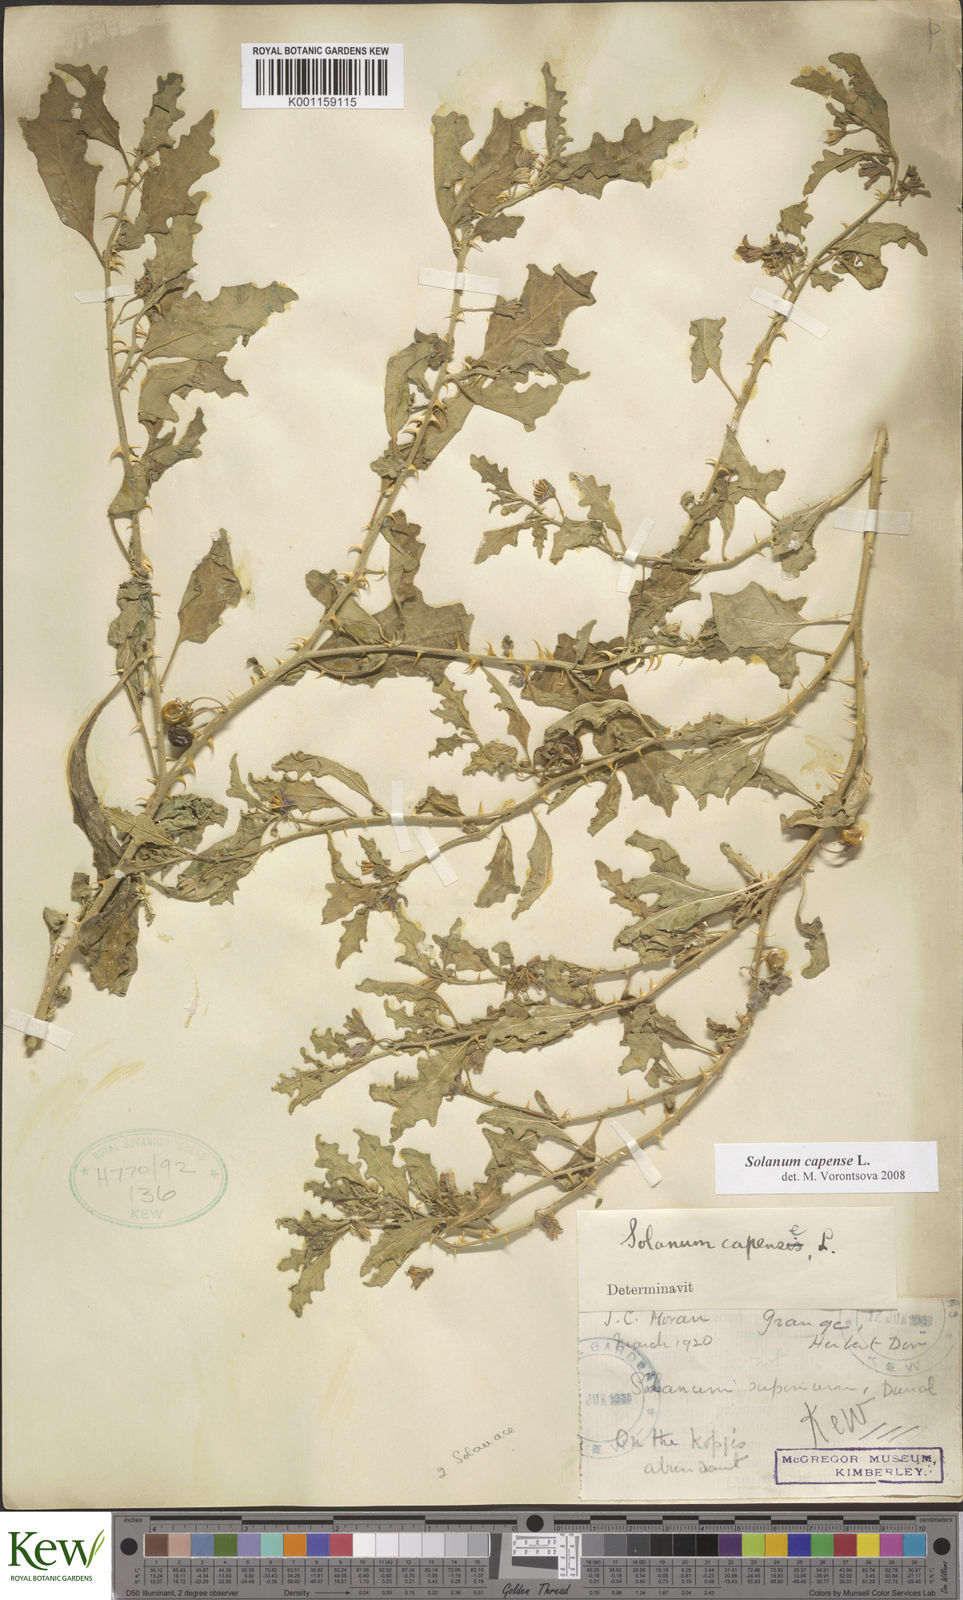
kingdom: Plantae
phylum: Tracheophyta
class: Magnoliopsida
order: Solanales
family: Solanaceae
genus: Solanum
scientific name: Solanum capense
